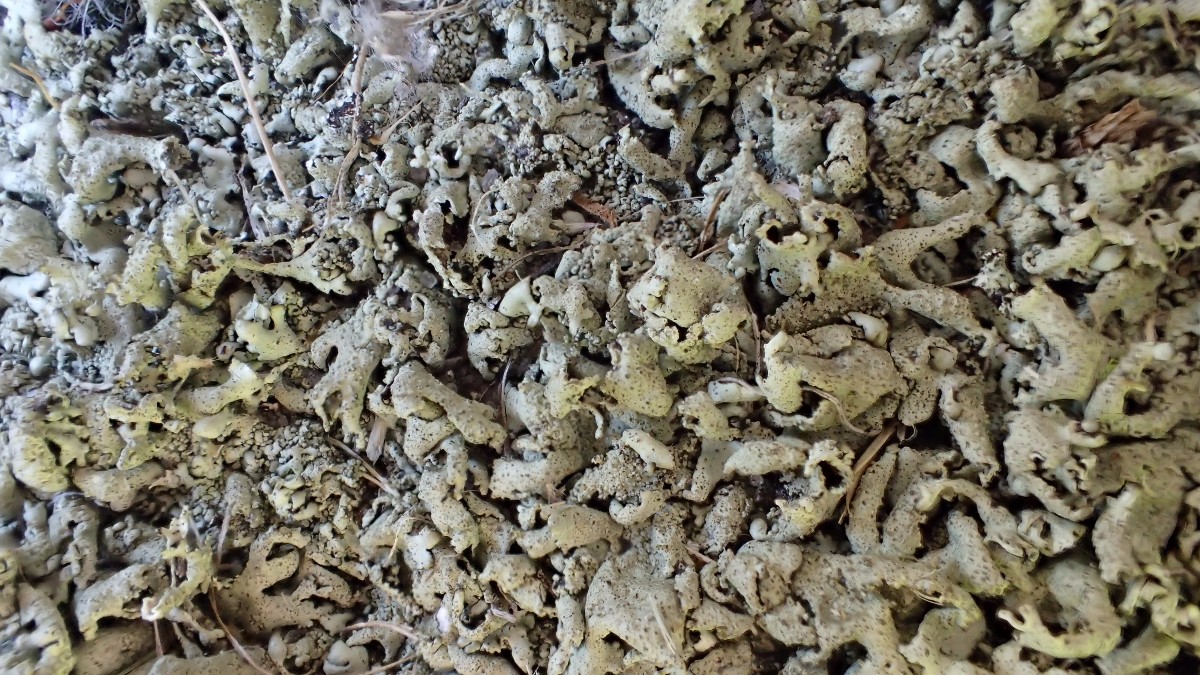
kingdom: Fungi
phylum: Ascomycota
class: Lecanoromycetes
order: Lecanorales
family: Parmeliaceae
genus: Xanthoparmelia
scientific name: Xanthoparmelia stenophylla
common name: Shingled rock shield
